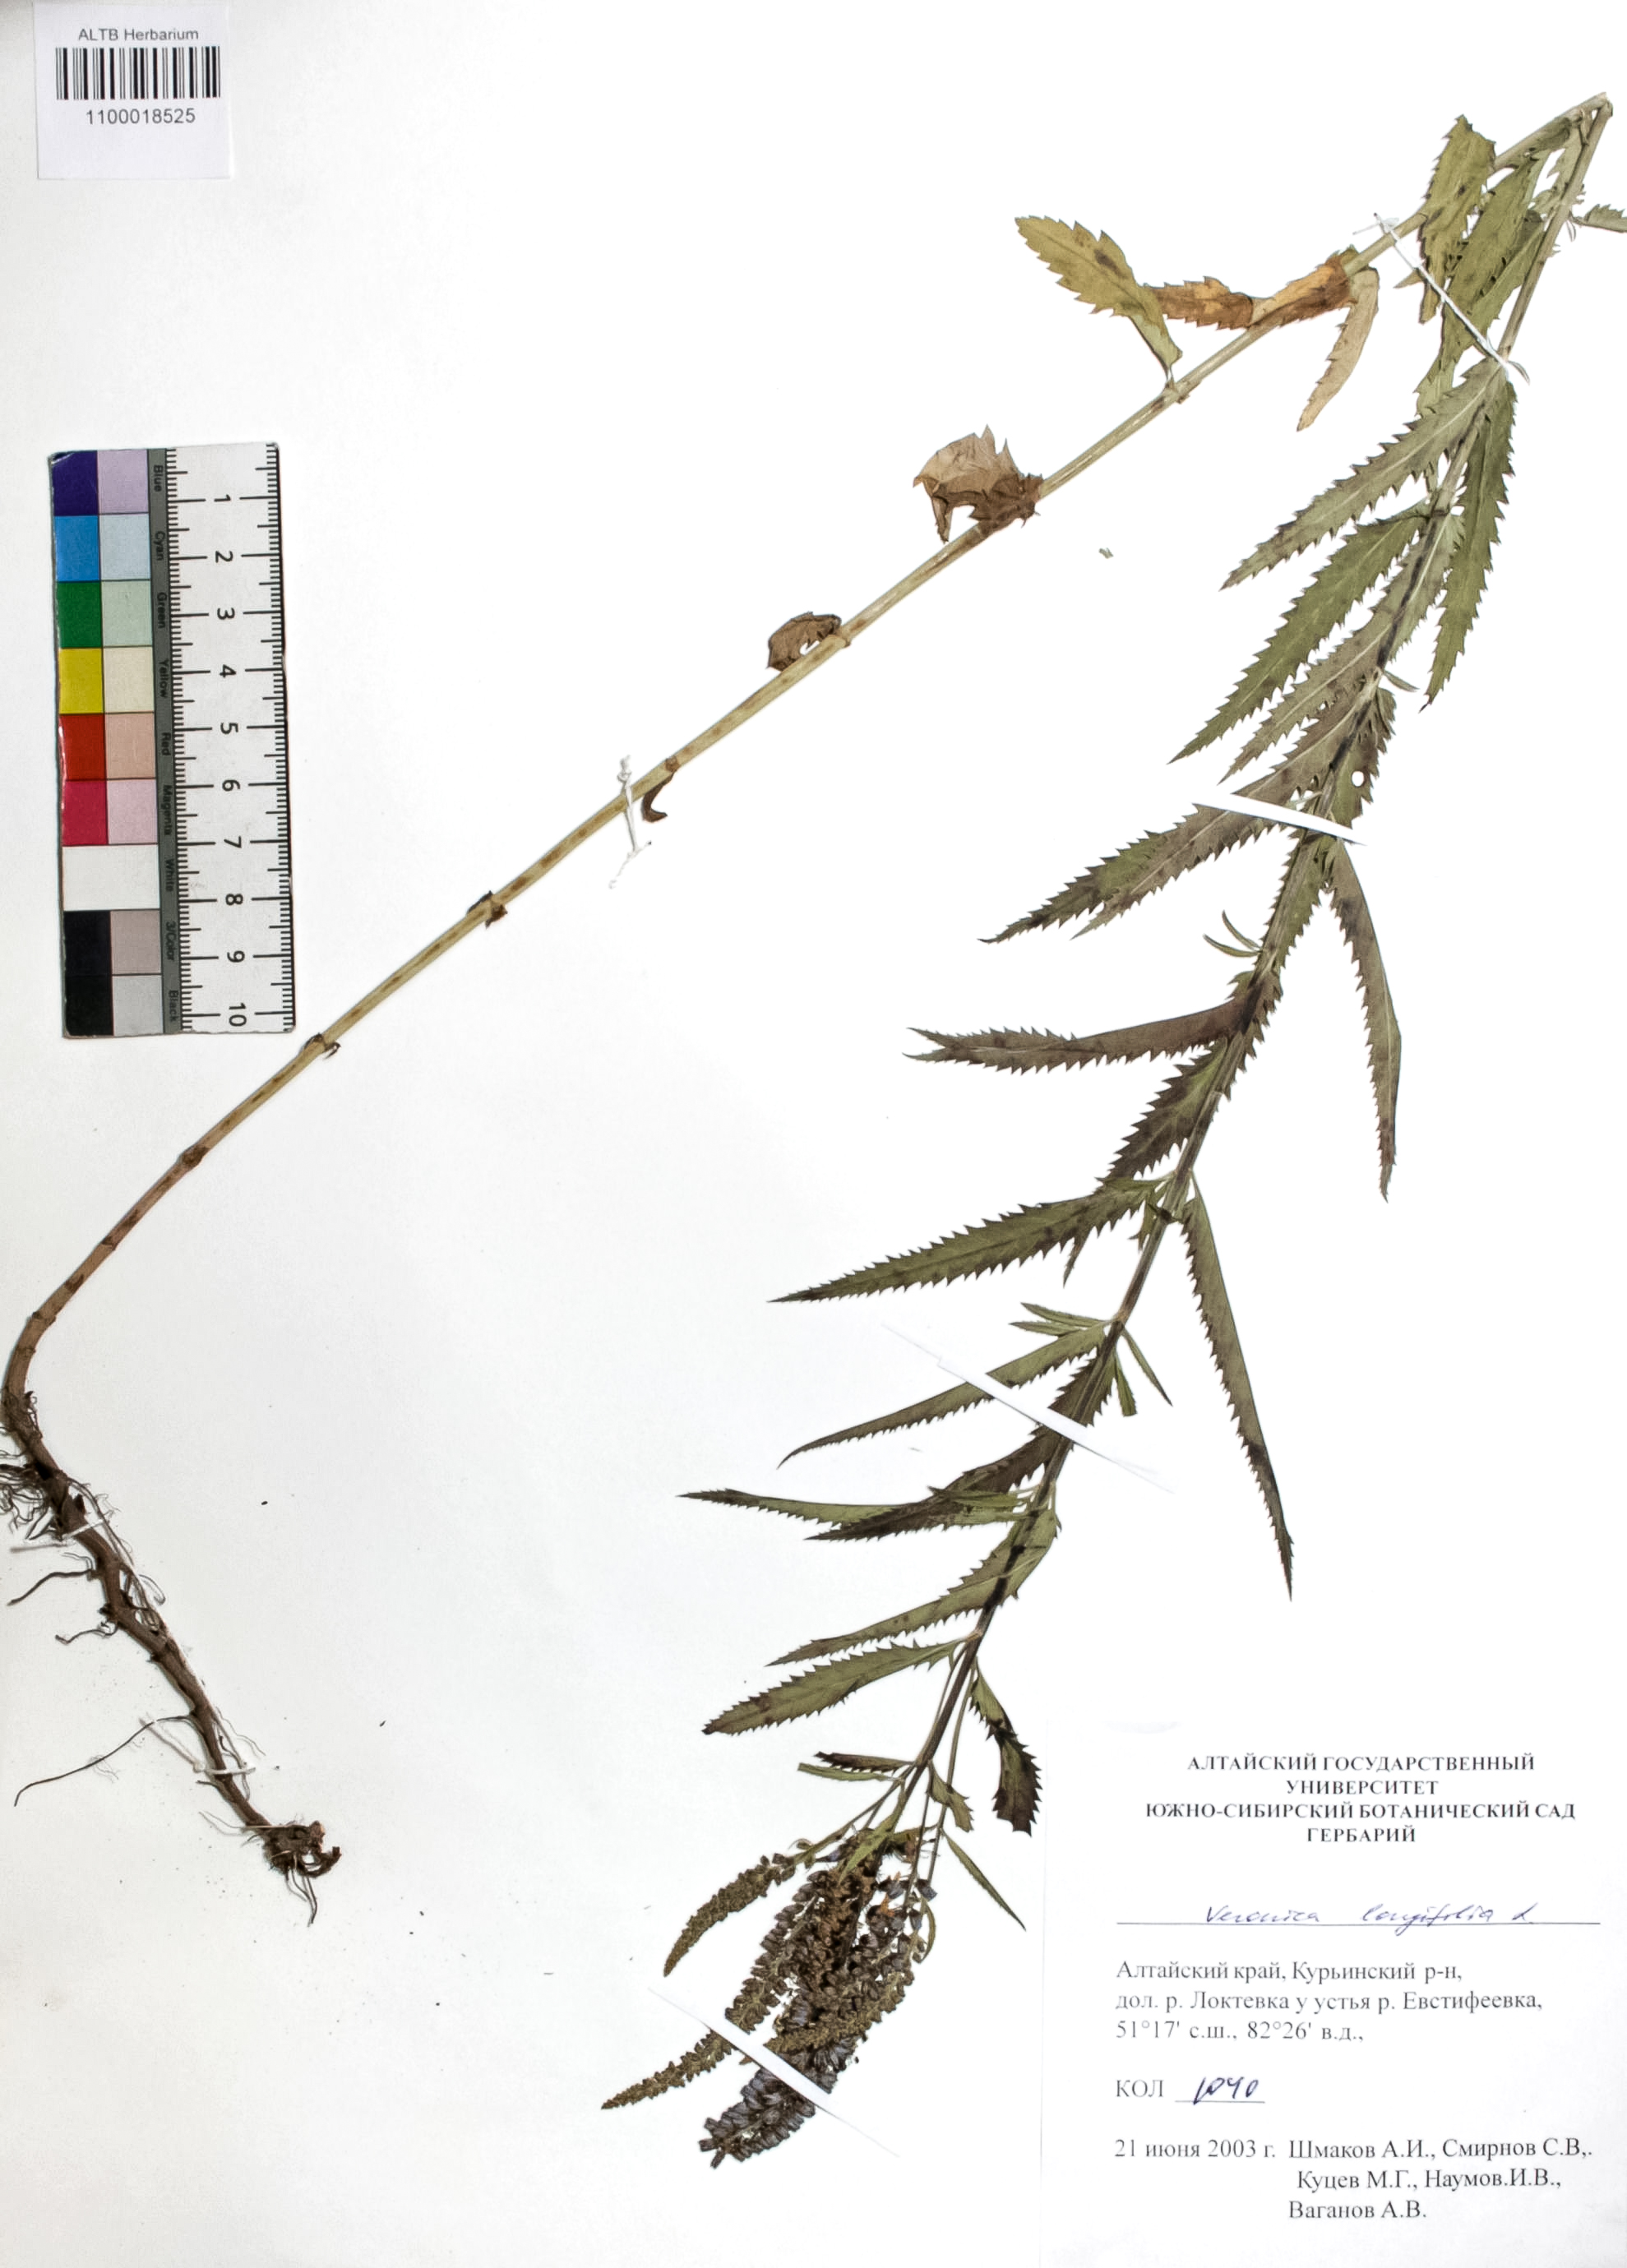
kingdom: Plantae
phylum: Tracheophyta
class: Magnoliopsida
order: Lamiales
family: Plantaginaceae
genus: Veronica
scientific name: Veronica longifolia
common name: Garden speedwell
